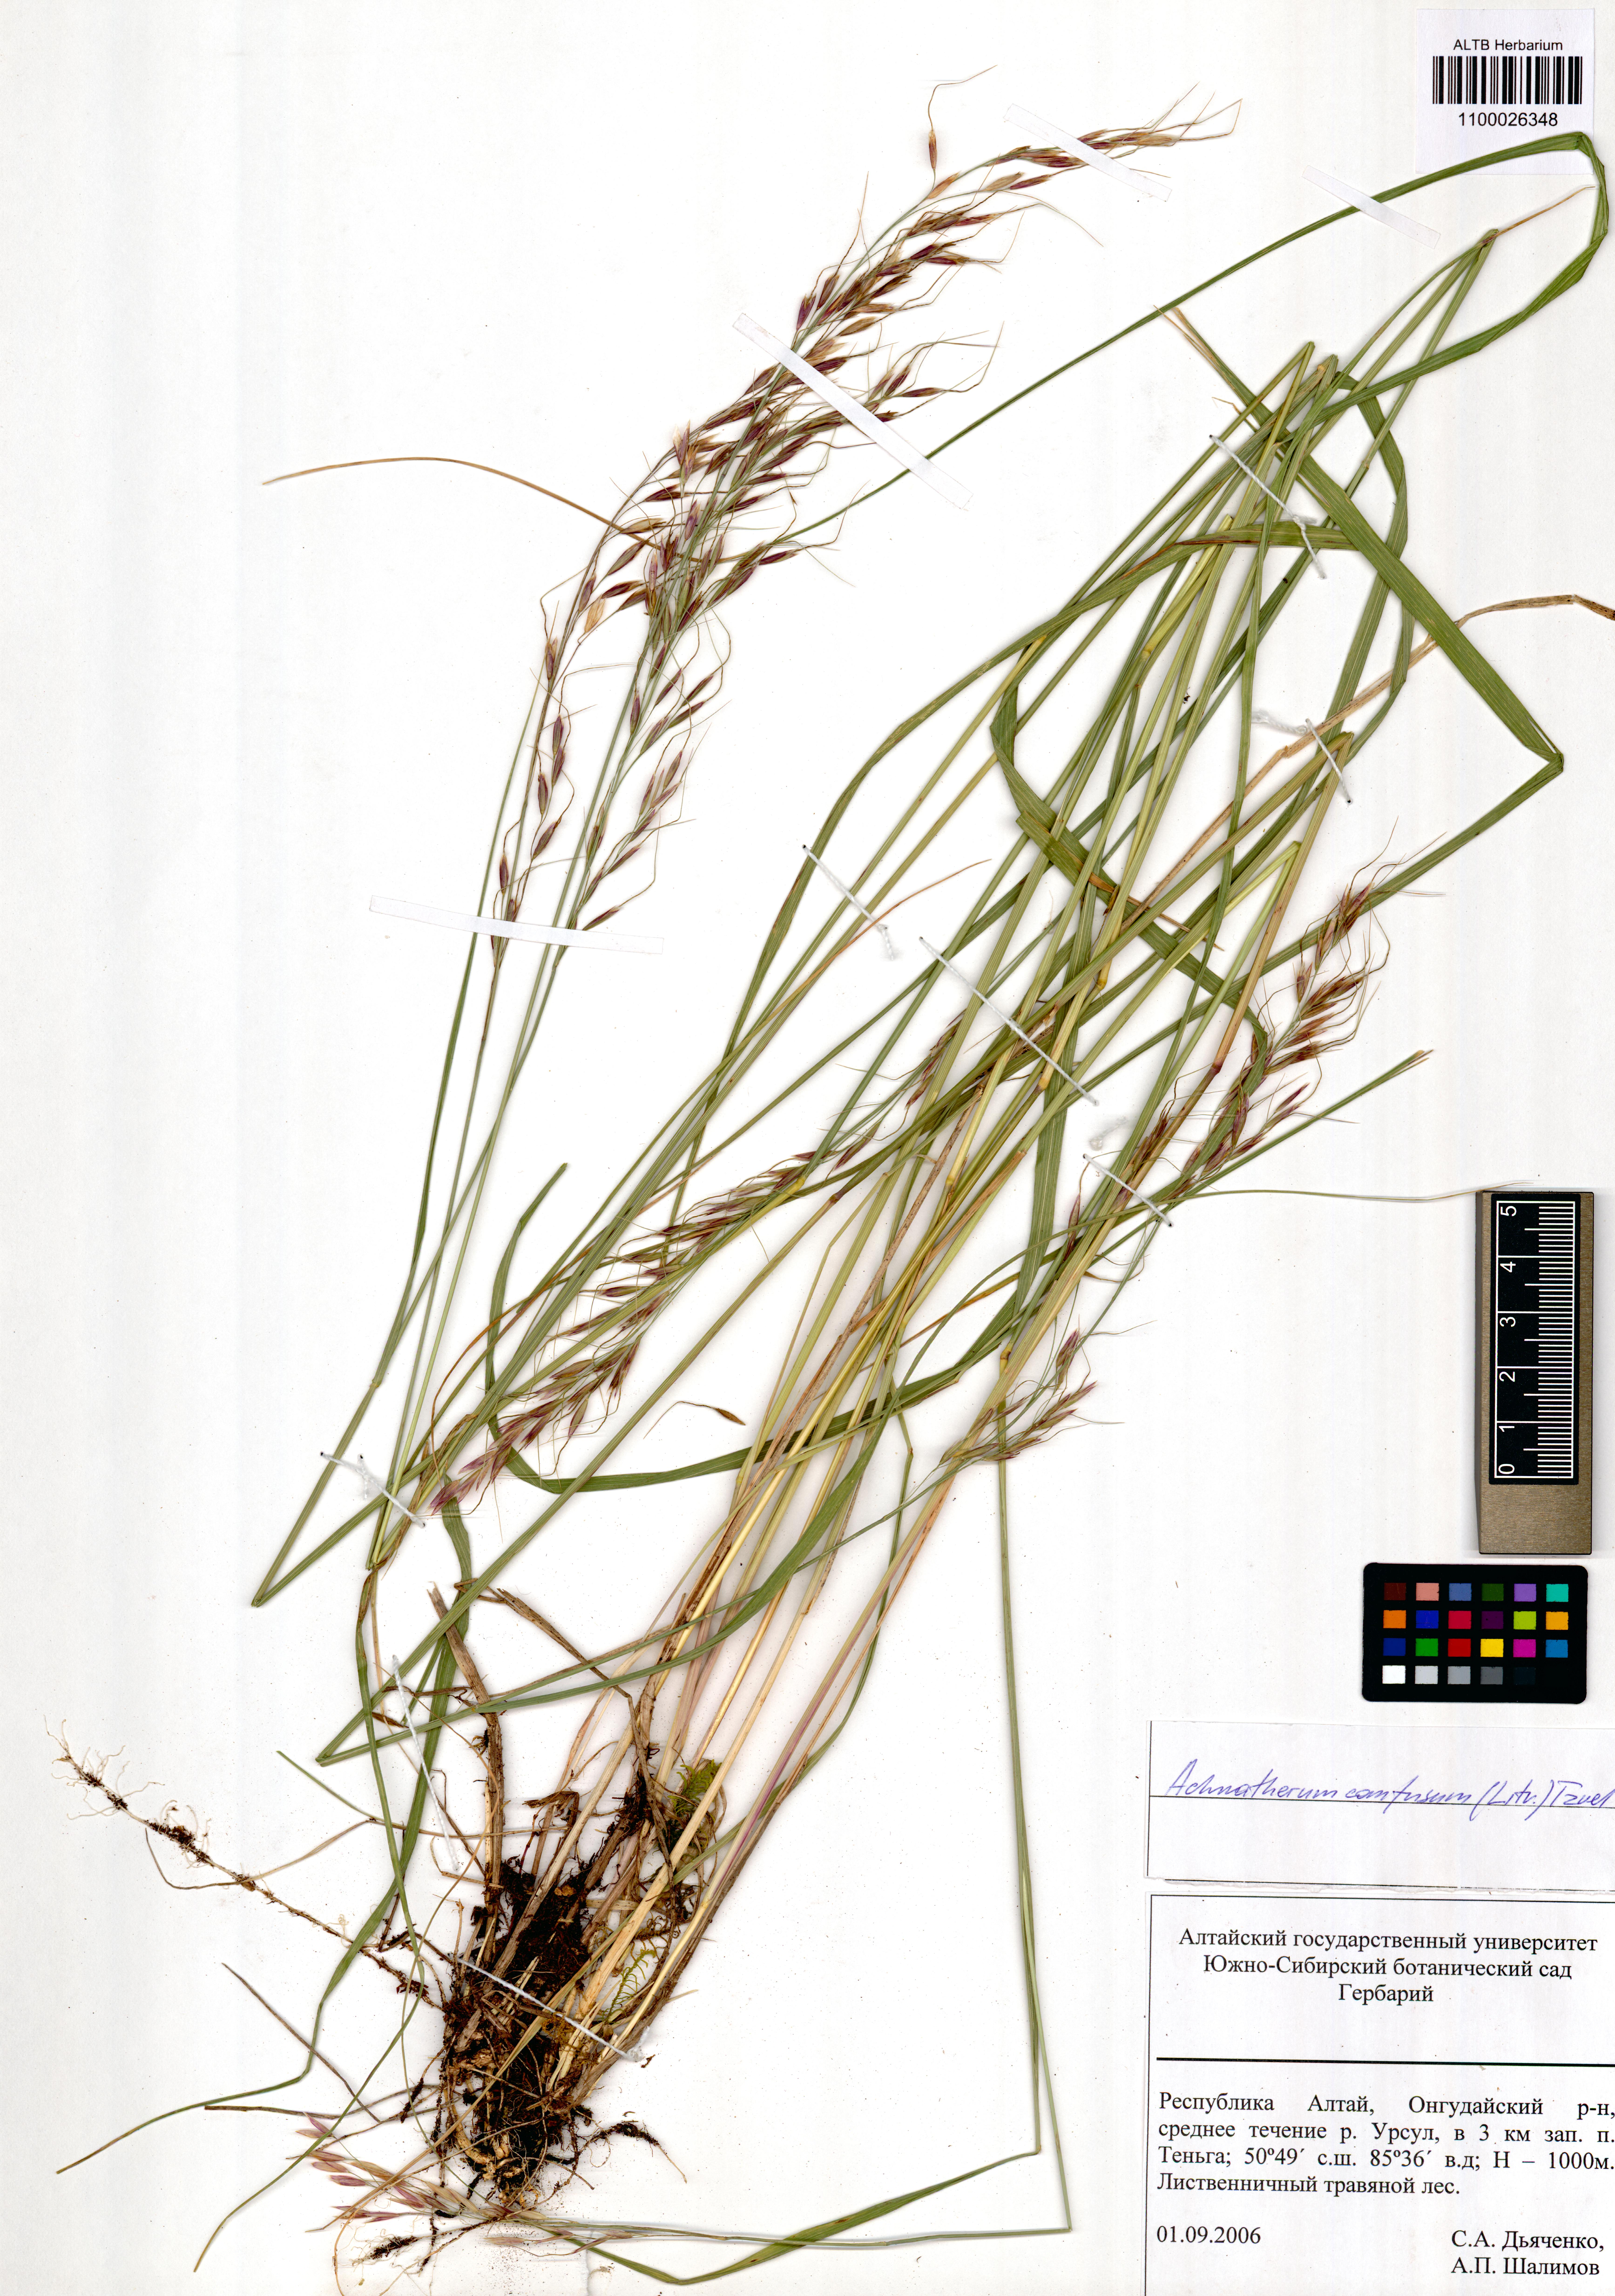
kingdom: Plantae
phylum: Tracheophyta
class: Liliopsida
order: Poales
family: Poaceae
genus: Achnatherum
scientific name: Achnatherum confusum
